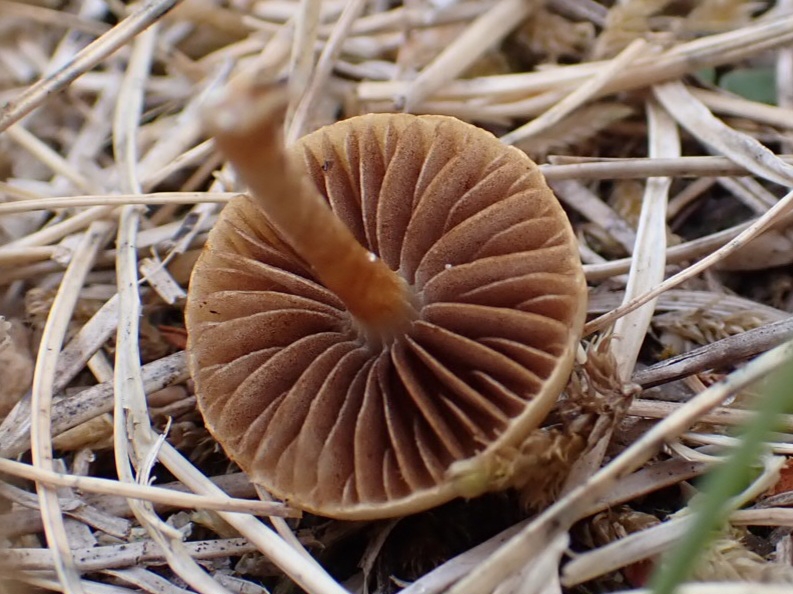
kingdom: Fungi
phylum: Basidiomycota
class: Agaricomycetes
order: Agaricales
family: Strophariaceae
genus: Agrocybe
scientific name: Agrocybe pediades
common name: almindelig agerhat
